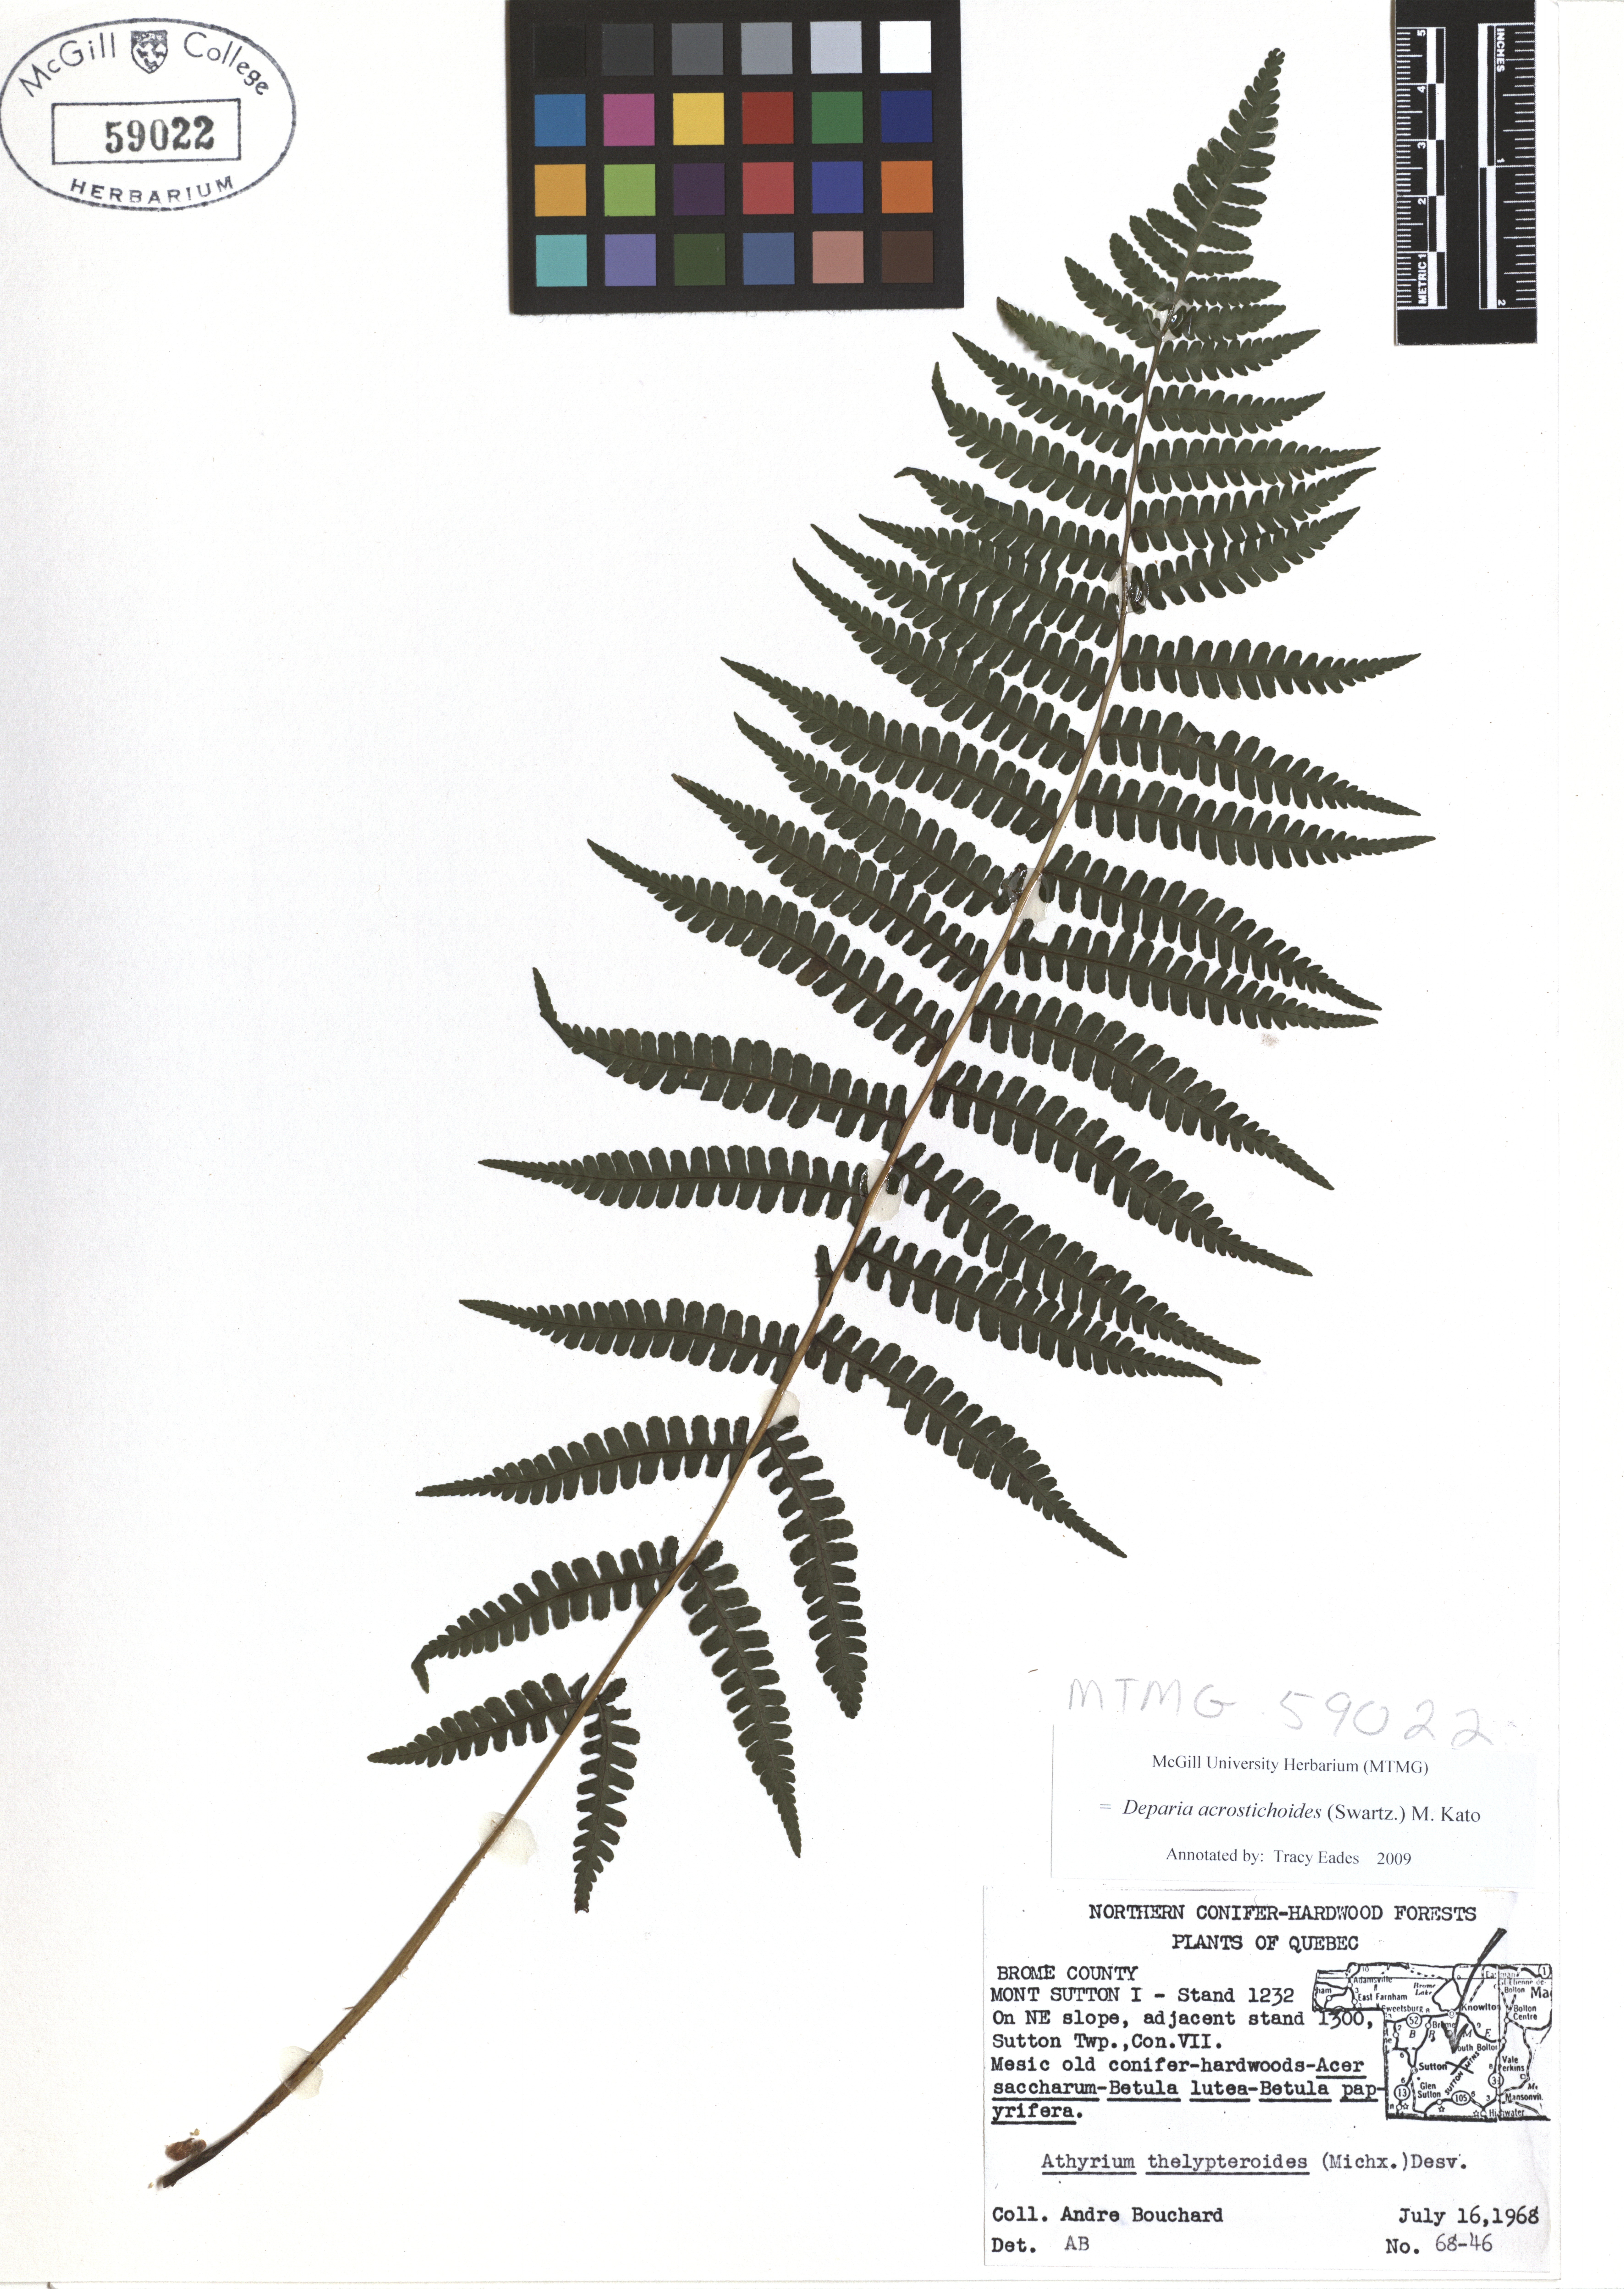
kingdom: Plantae
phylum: Tracheophyta
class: Polypodiopsida
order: Polypodiales
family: Athyriaceae
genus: Deparia
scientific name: Deparia acrostichoides
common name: Silver false spleenwort
